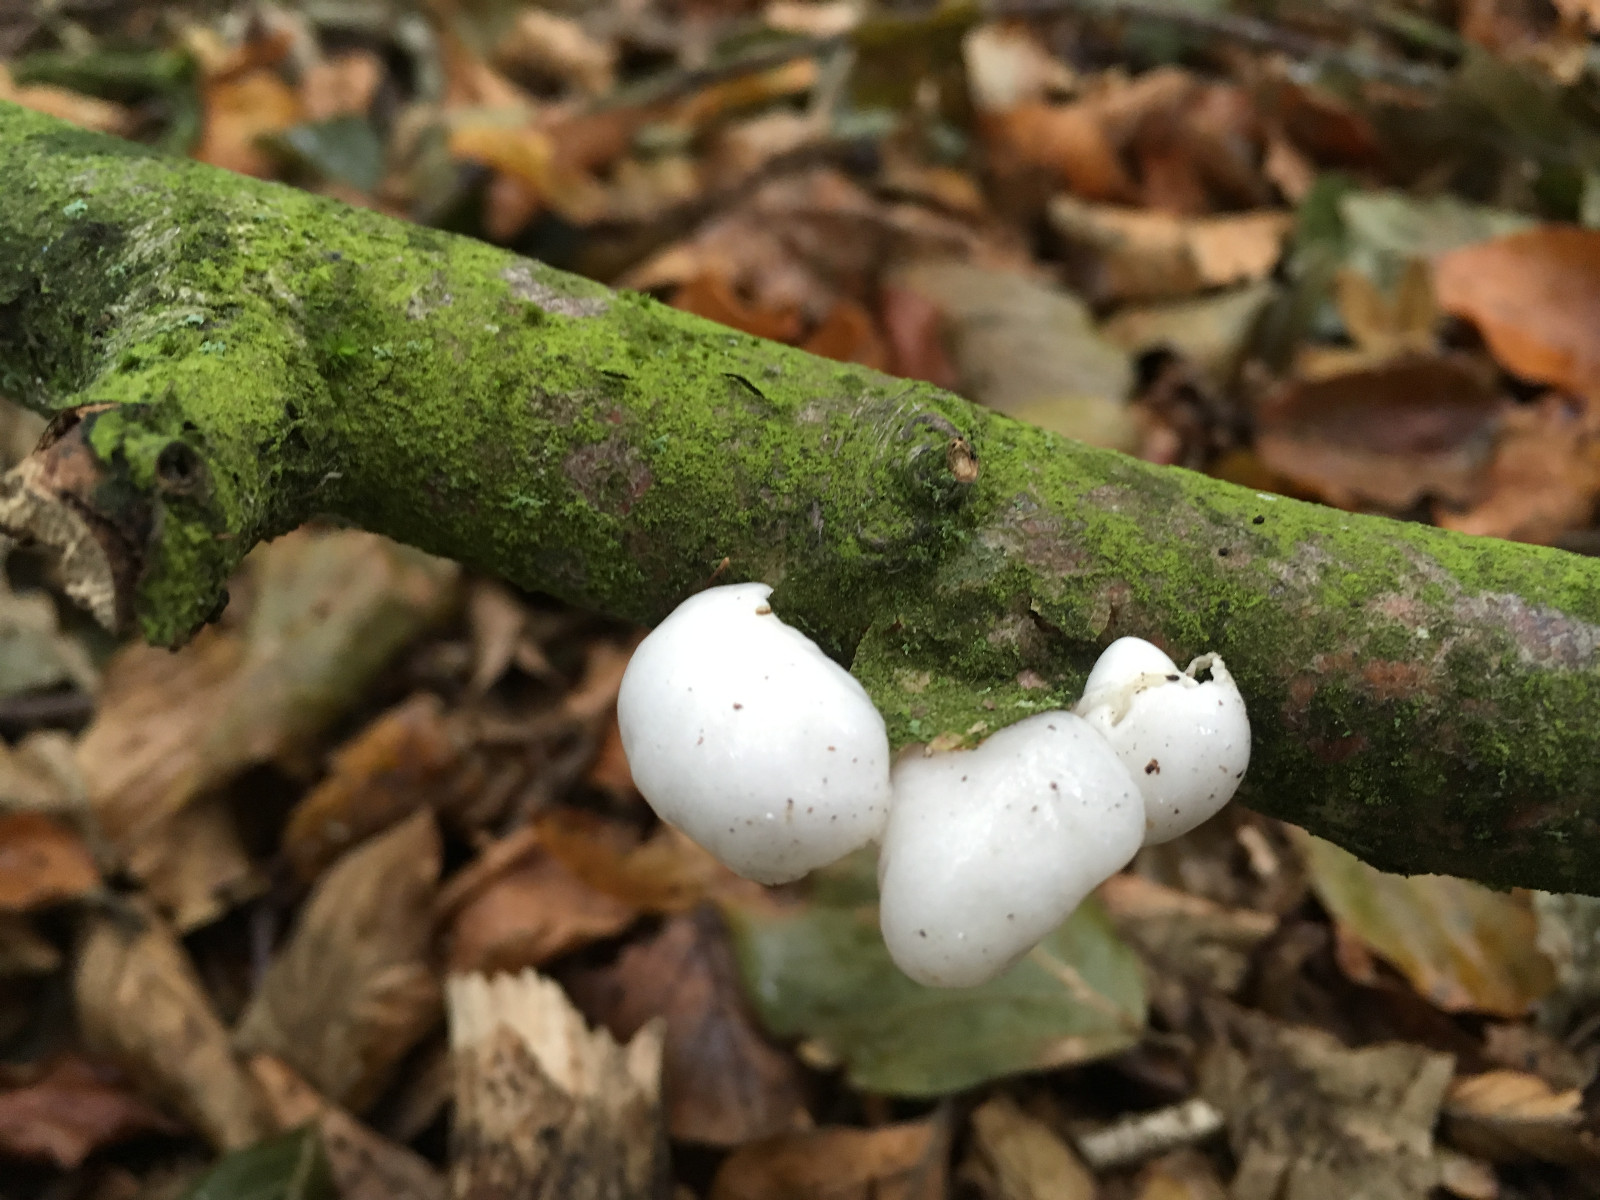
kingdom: Fungi
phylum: Basidiomycota
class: Agaricomycetes
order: Agaricales
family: Physalacriaceae
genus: Mucidula
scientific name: Mucidula mucida
